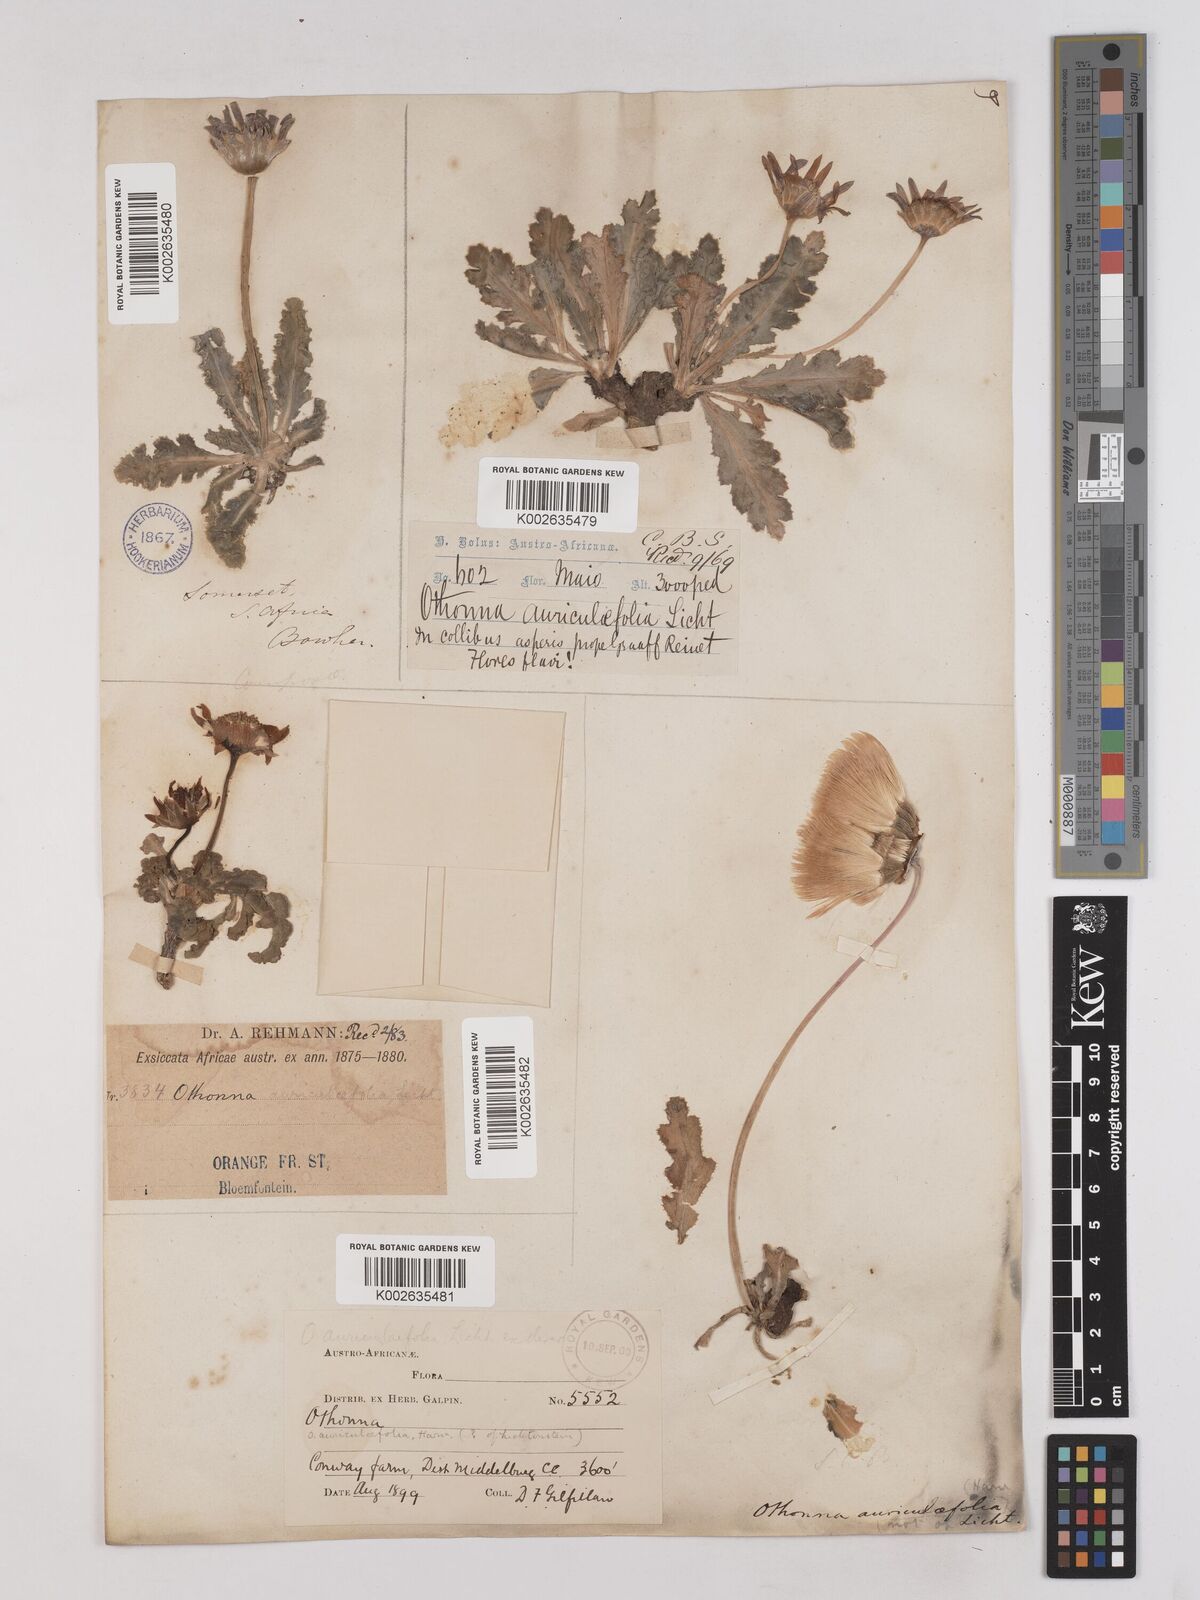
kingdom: Plantae
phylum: Tracheophyta
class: Magnoliopsida
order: Asterales
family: Asteraceae
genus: Othonna
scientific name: Othonna auriculifolia
